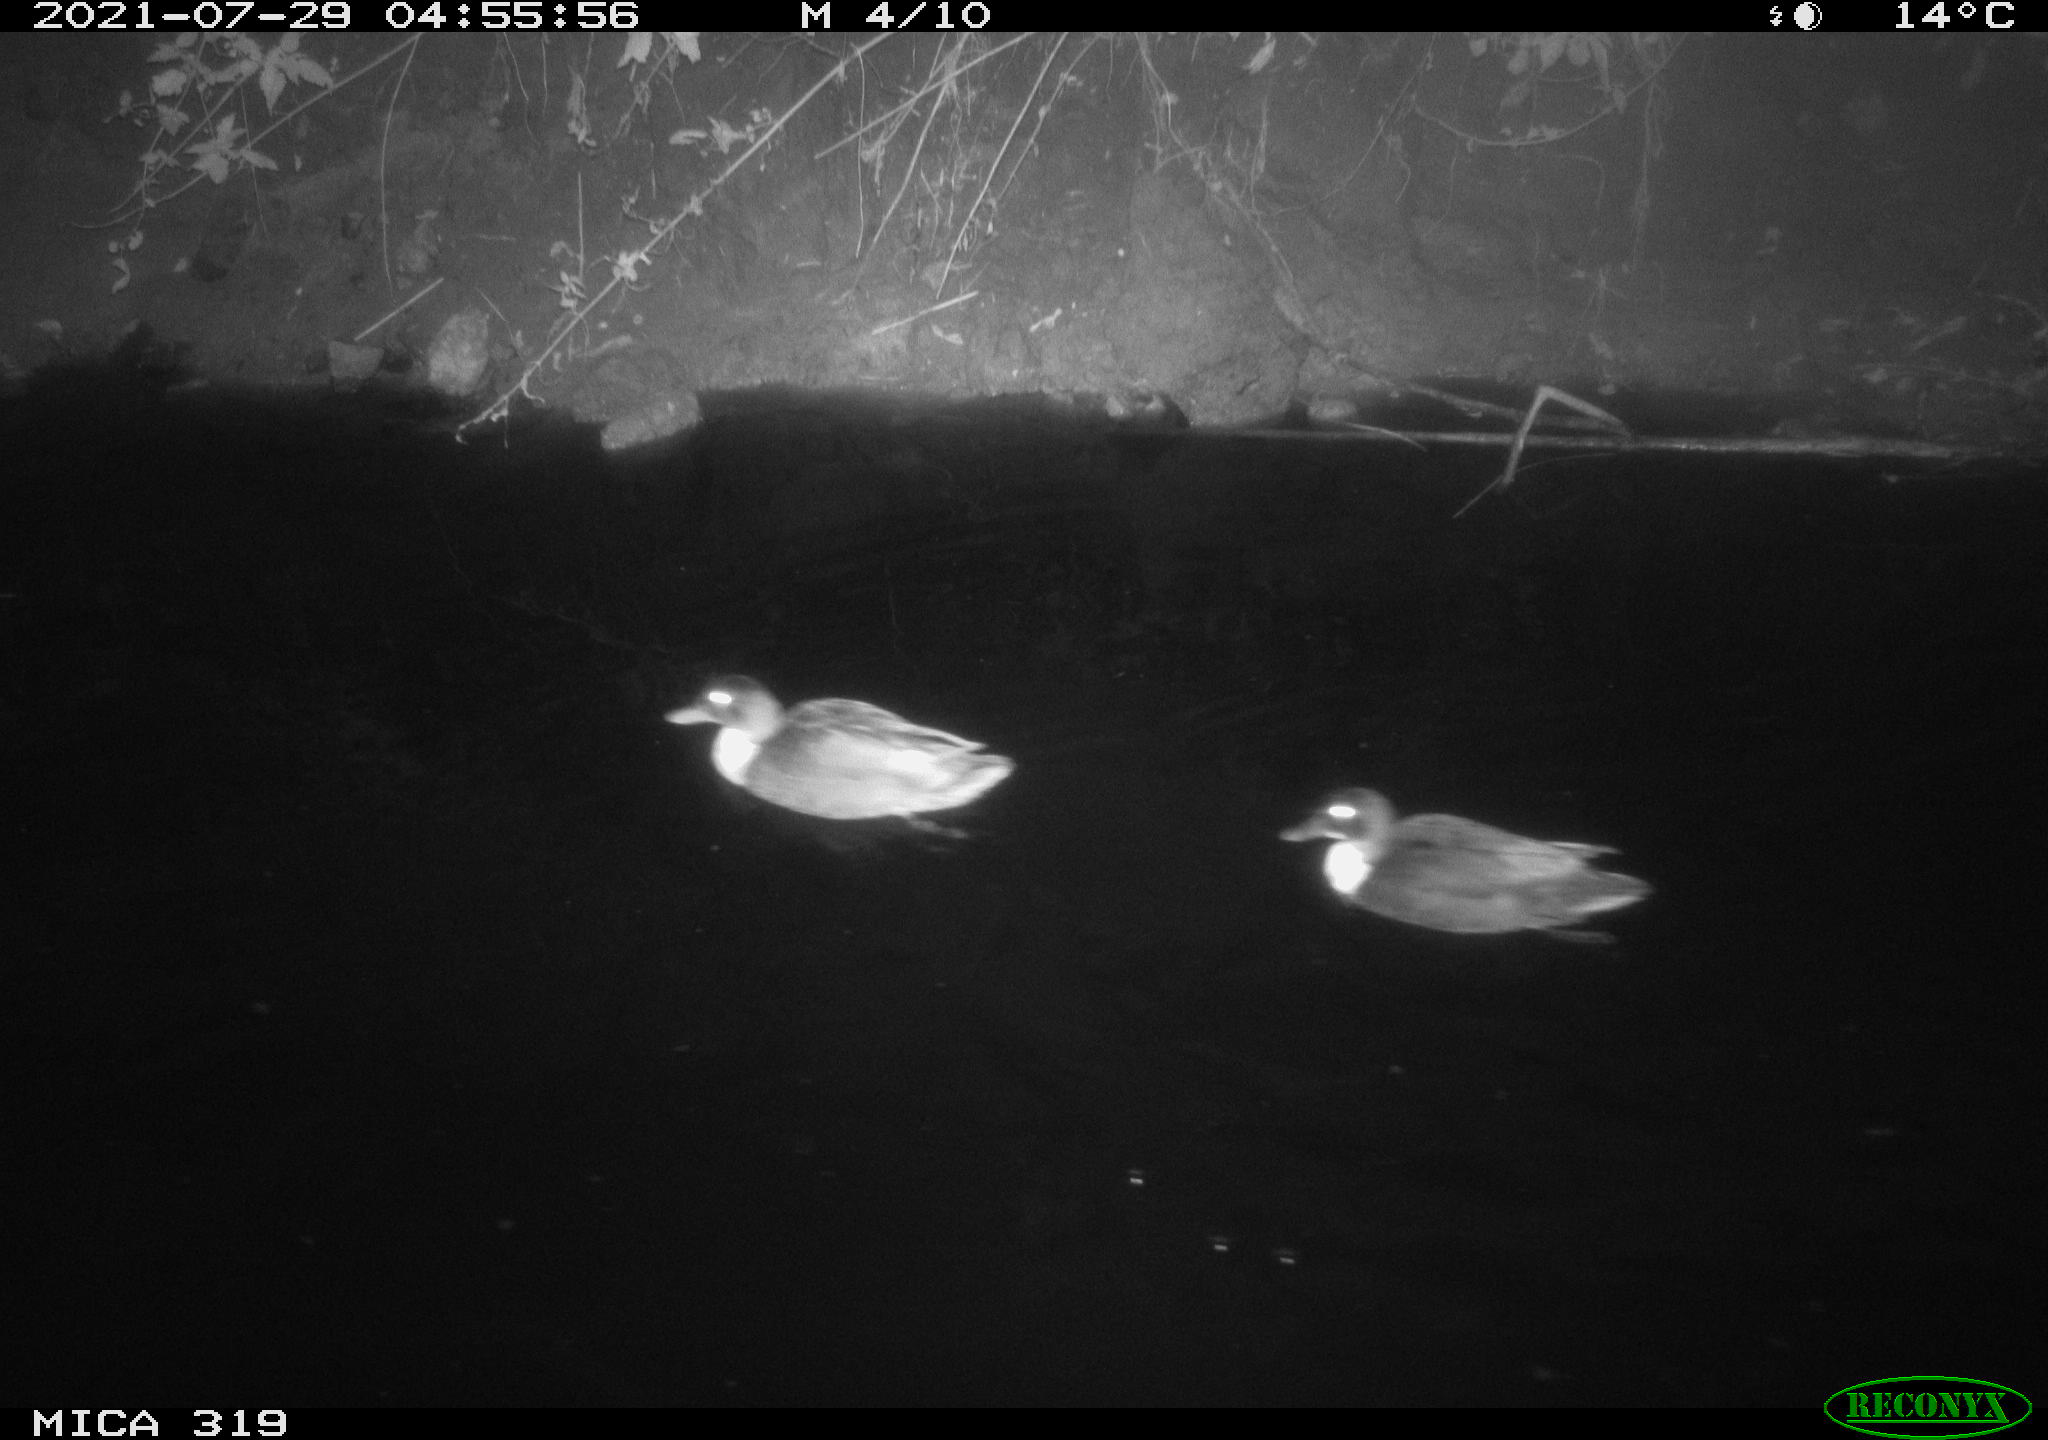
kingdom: Animalia
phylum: Chordata
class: Aves
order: Anseriformes
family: Anatidae
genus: Anas
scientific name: Anas platyrhynchos
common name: Mallard
